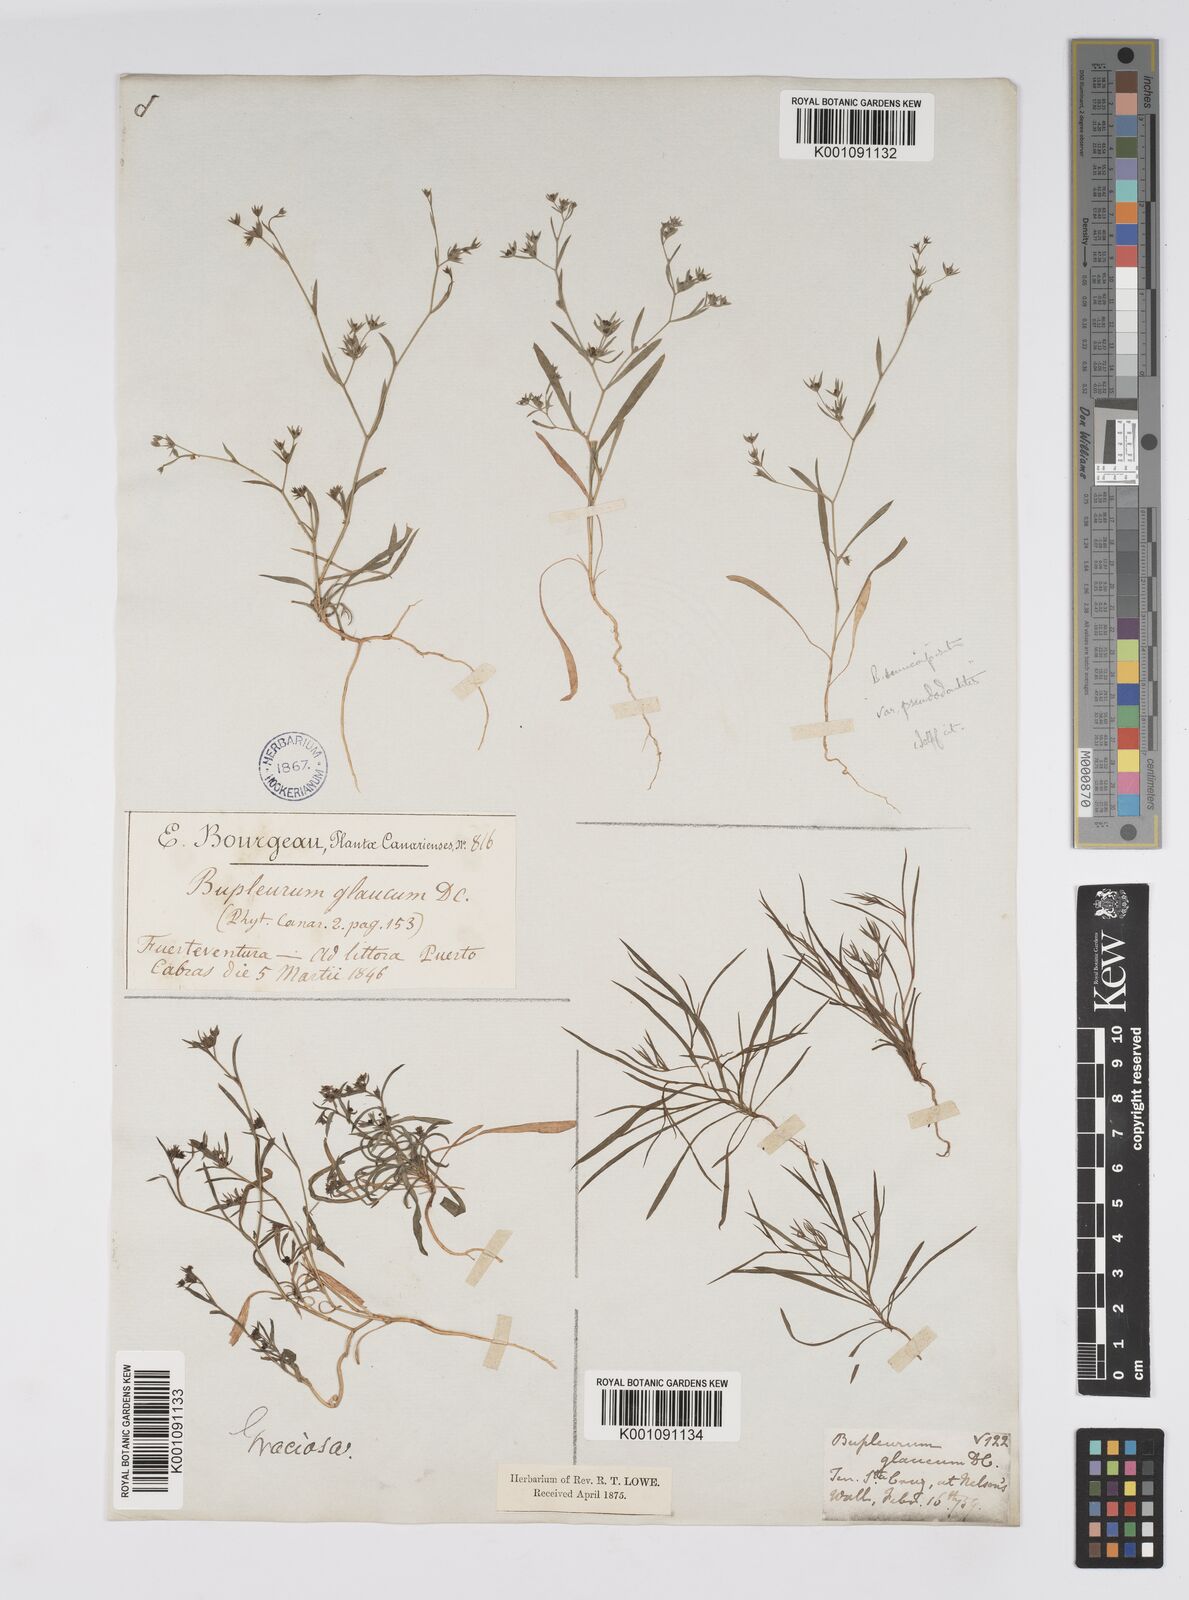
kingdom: Plantae
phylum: Tracheophyta
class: Magnoliopsida
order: Apiales
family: Apiaceae
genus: Bupleurum
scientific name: Bupleurum semicompositum
